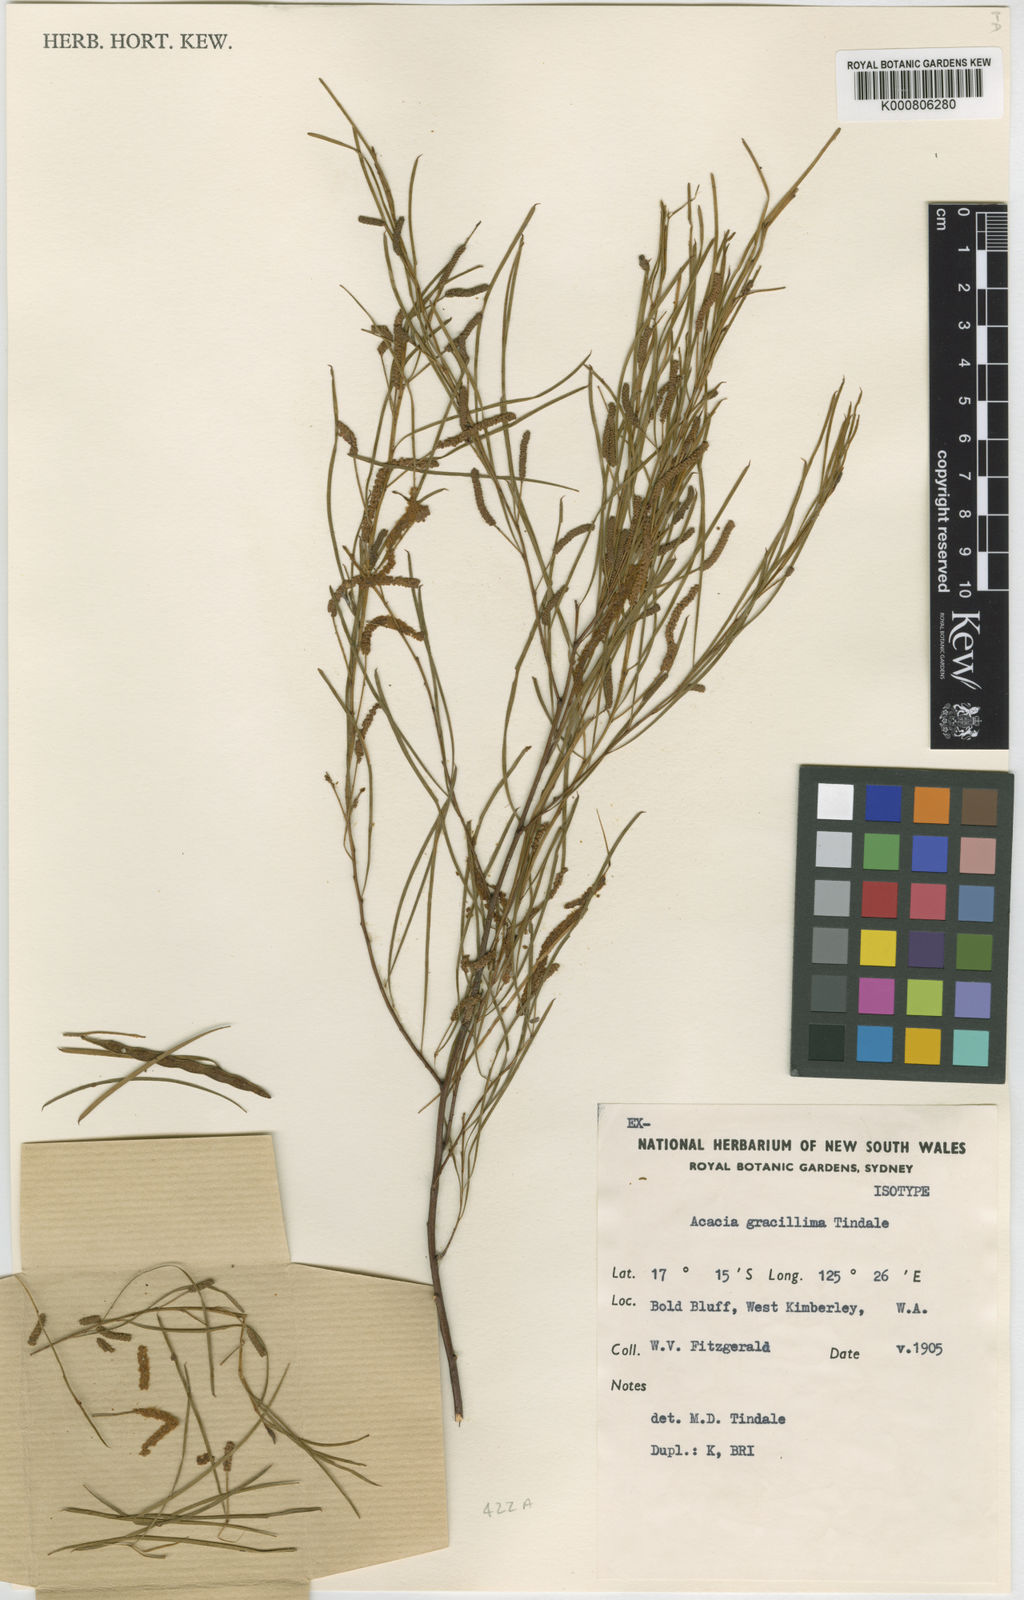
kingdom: Plantae
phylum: Tracheophyta
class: Magnoliopsida
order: Fabales
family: Fabaceae
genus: Acacia
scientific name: Acacia minniritchi
